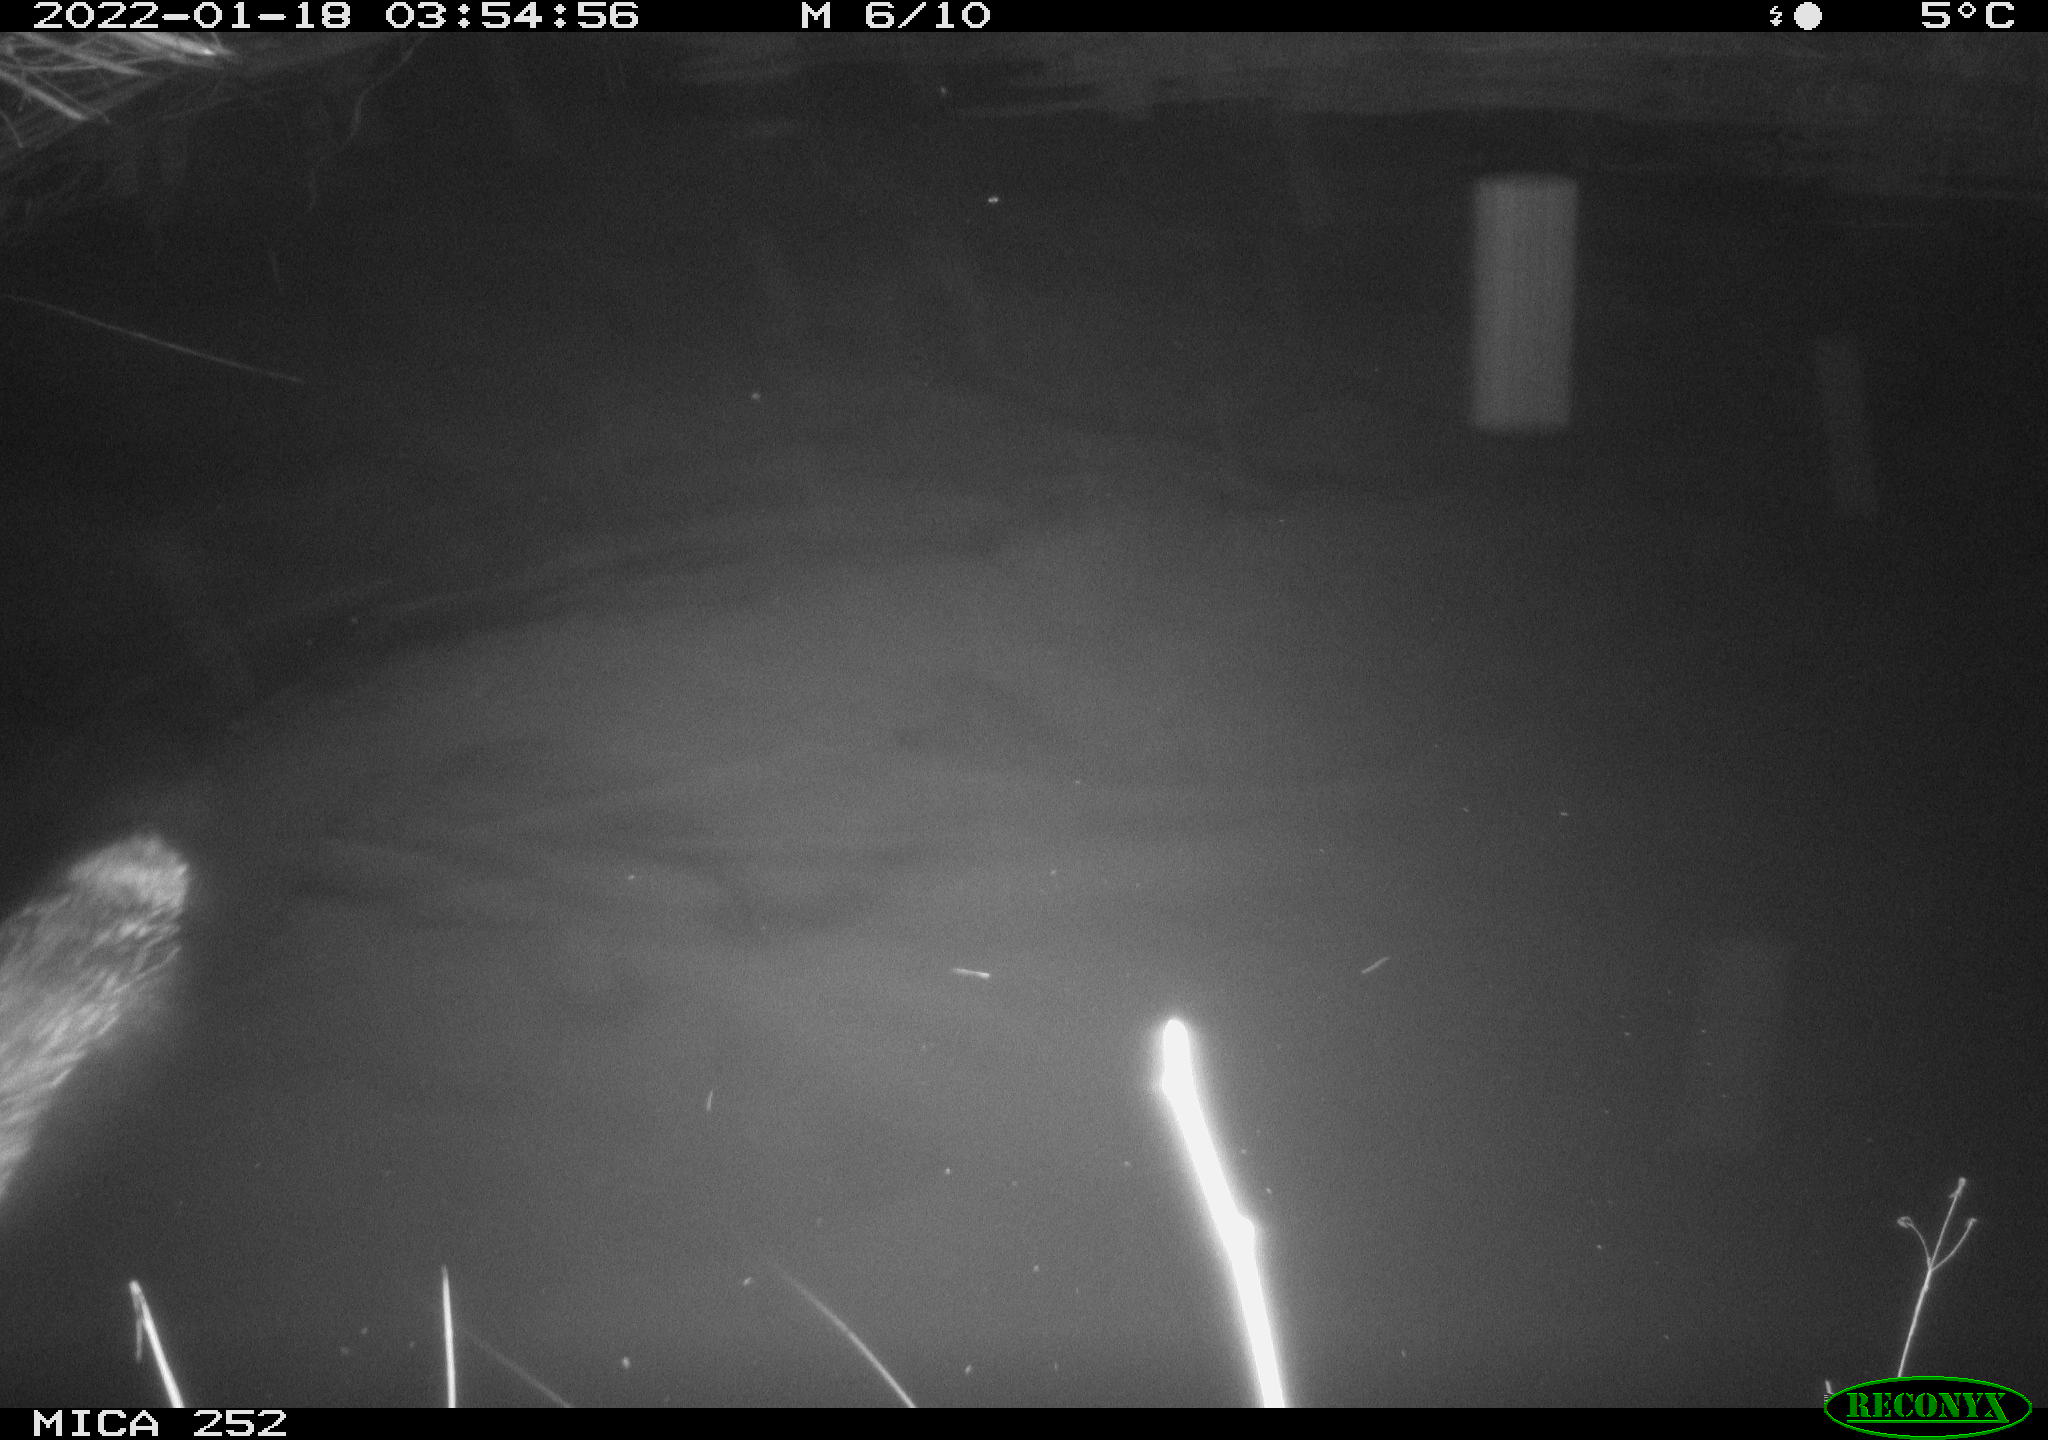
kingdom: Animalia
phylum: Chordata
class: Mammalia
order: Rodentia
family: Castoridae
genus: Castor
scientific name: Castor fiber
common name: Eurasian beaver
